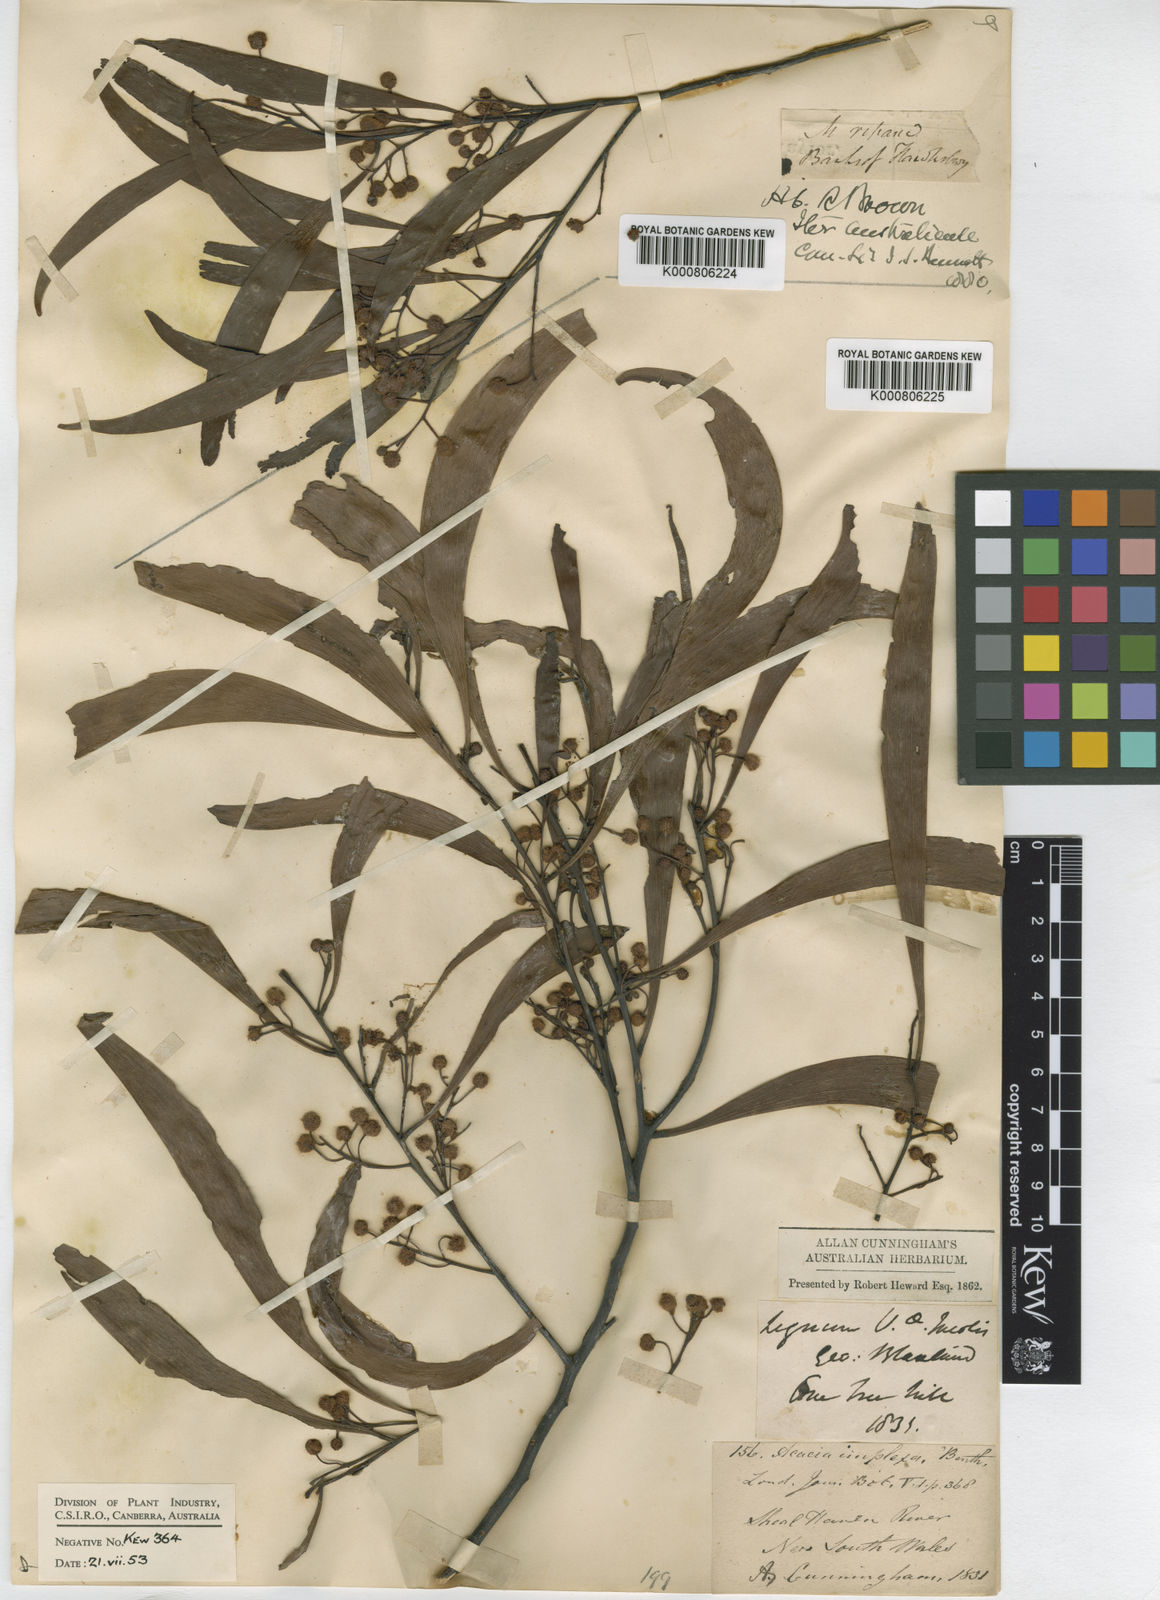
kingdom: Plantae
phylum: Tracheophyta
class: Magnoliopsida
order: Fabales
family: Fabaceae
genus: Acacia
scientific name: Acacia implexa
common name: Black wattle
